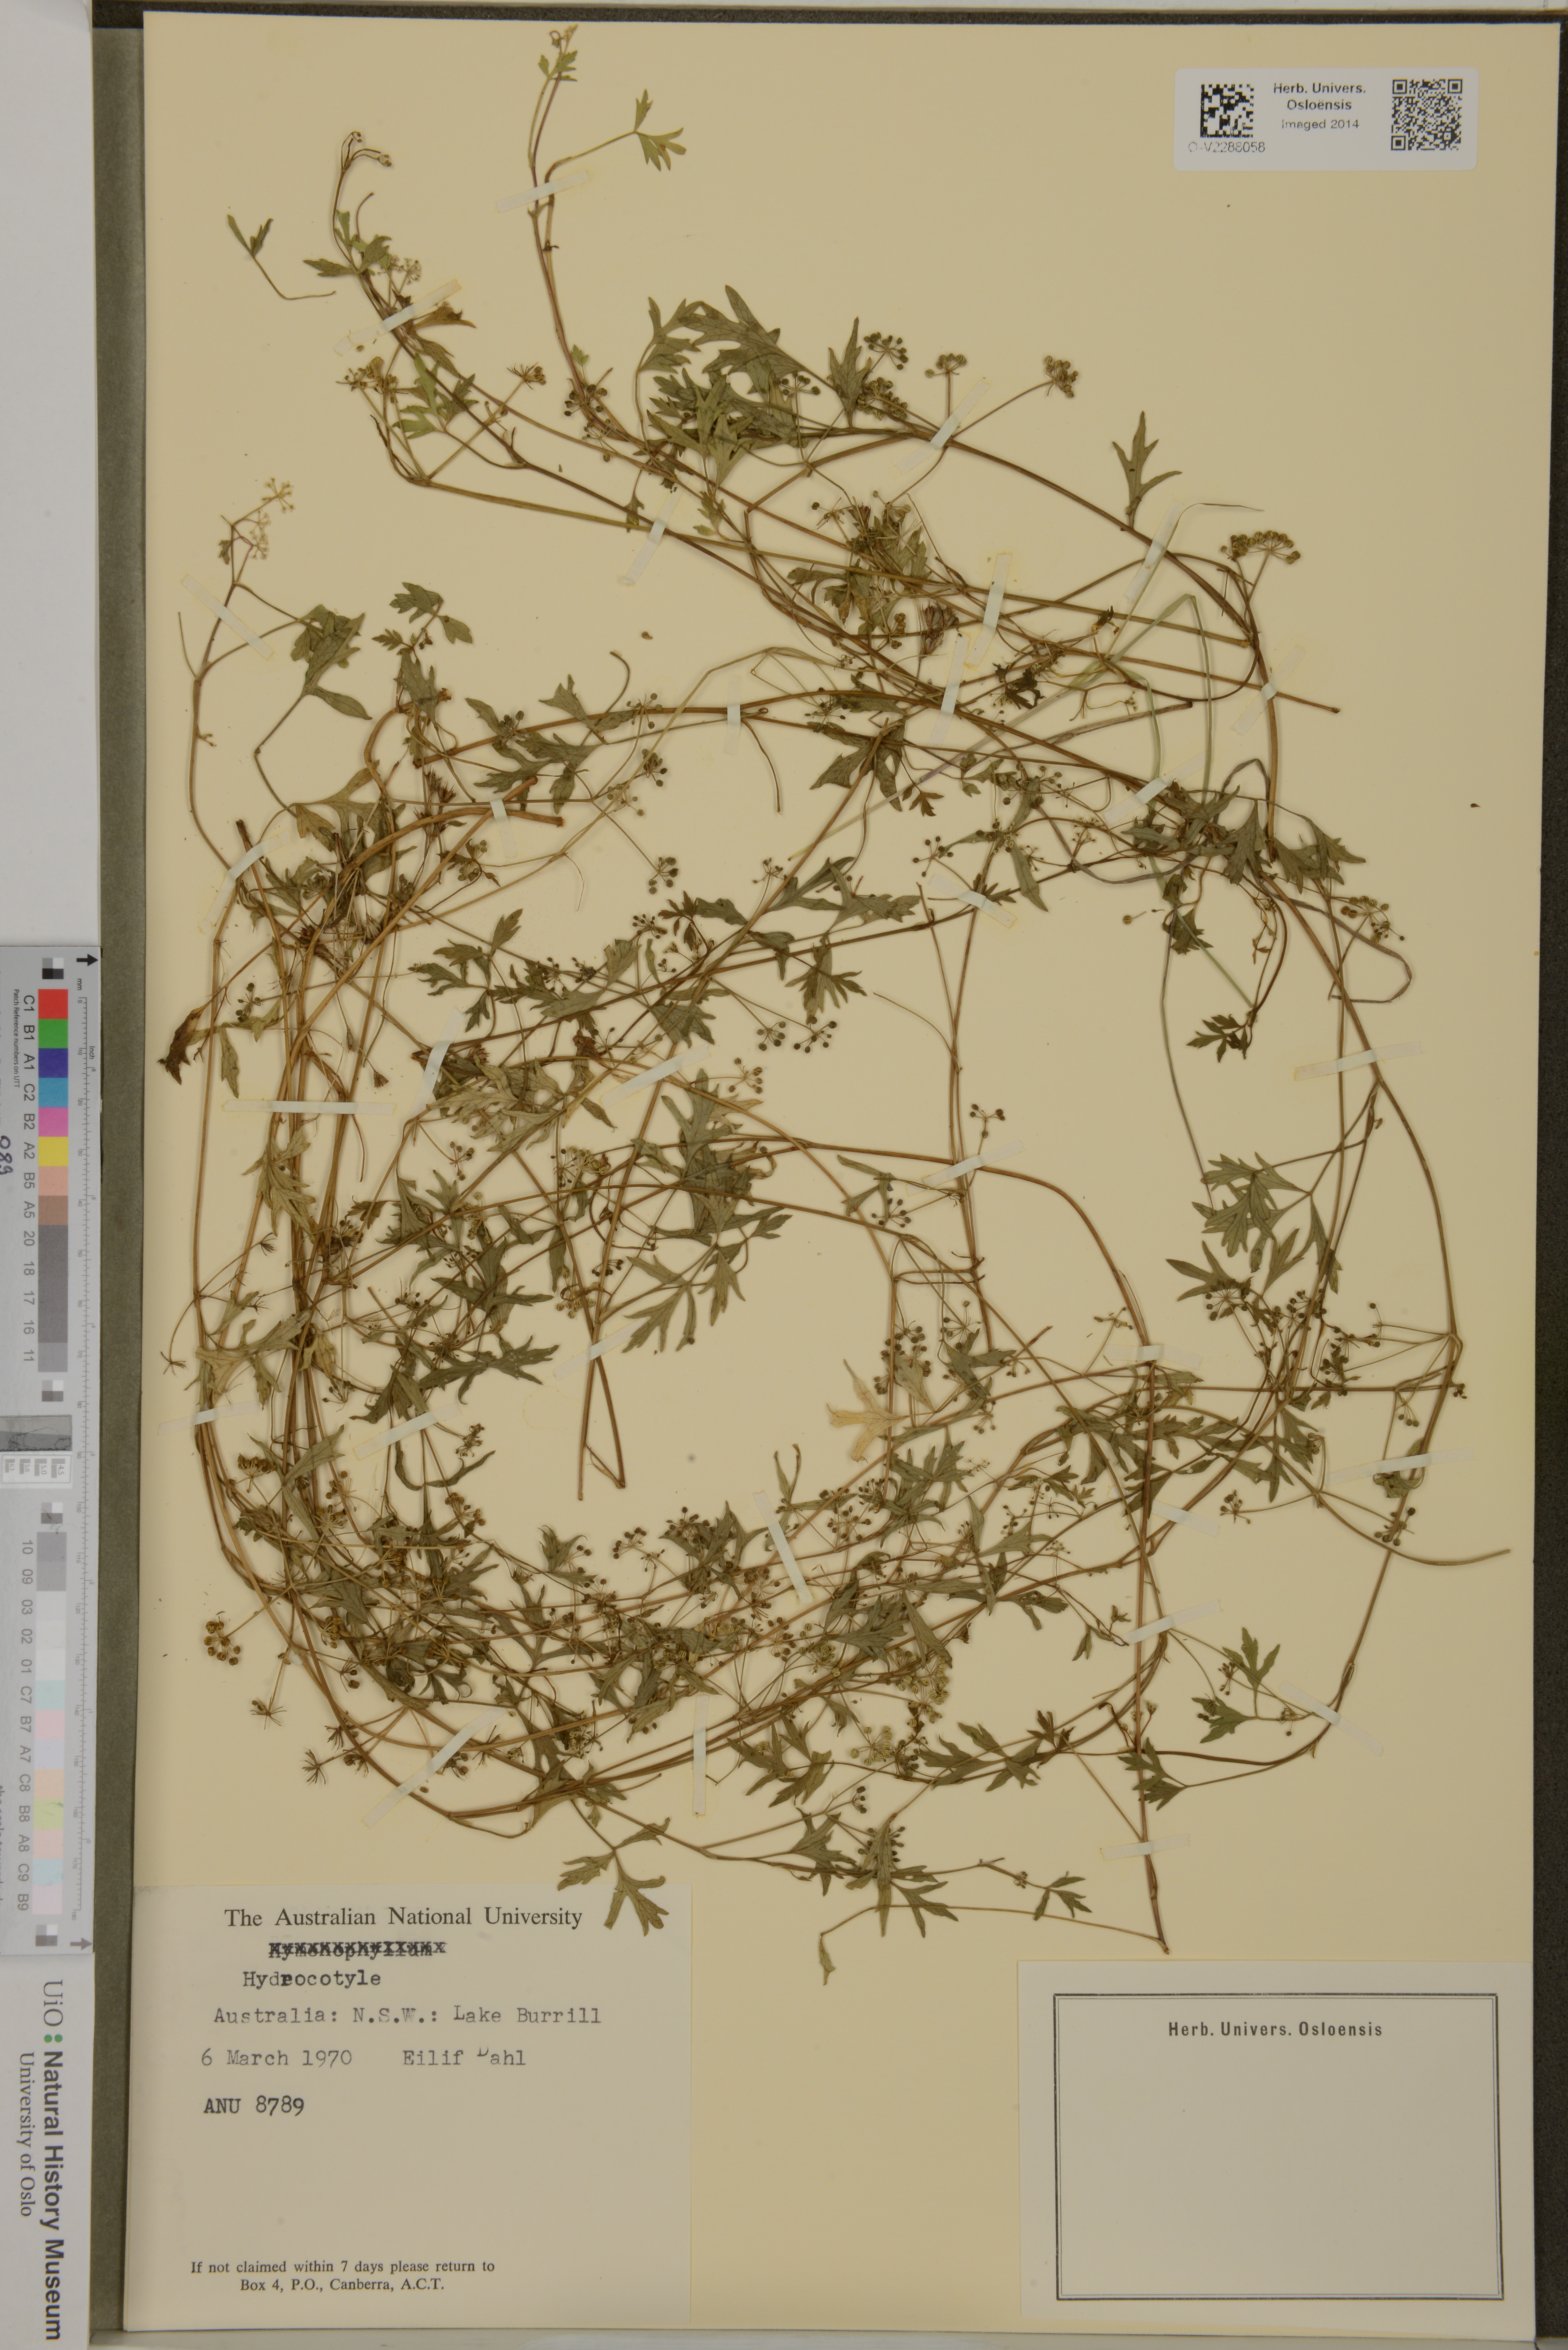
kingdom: Plantae
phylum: Tracheophyta
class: Magnoliopsida
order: Apiales
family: Araliaceae
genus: Hydrocotyle
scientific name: Hydrocotyle
